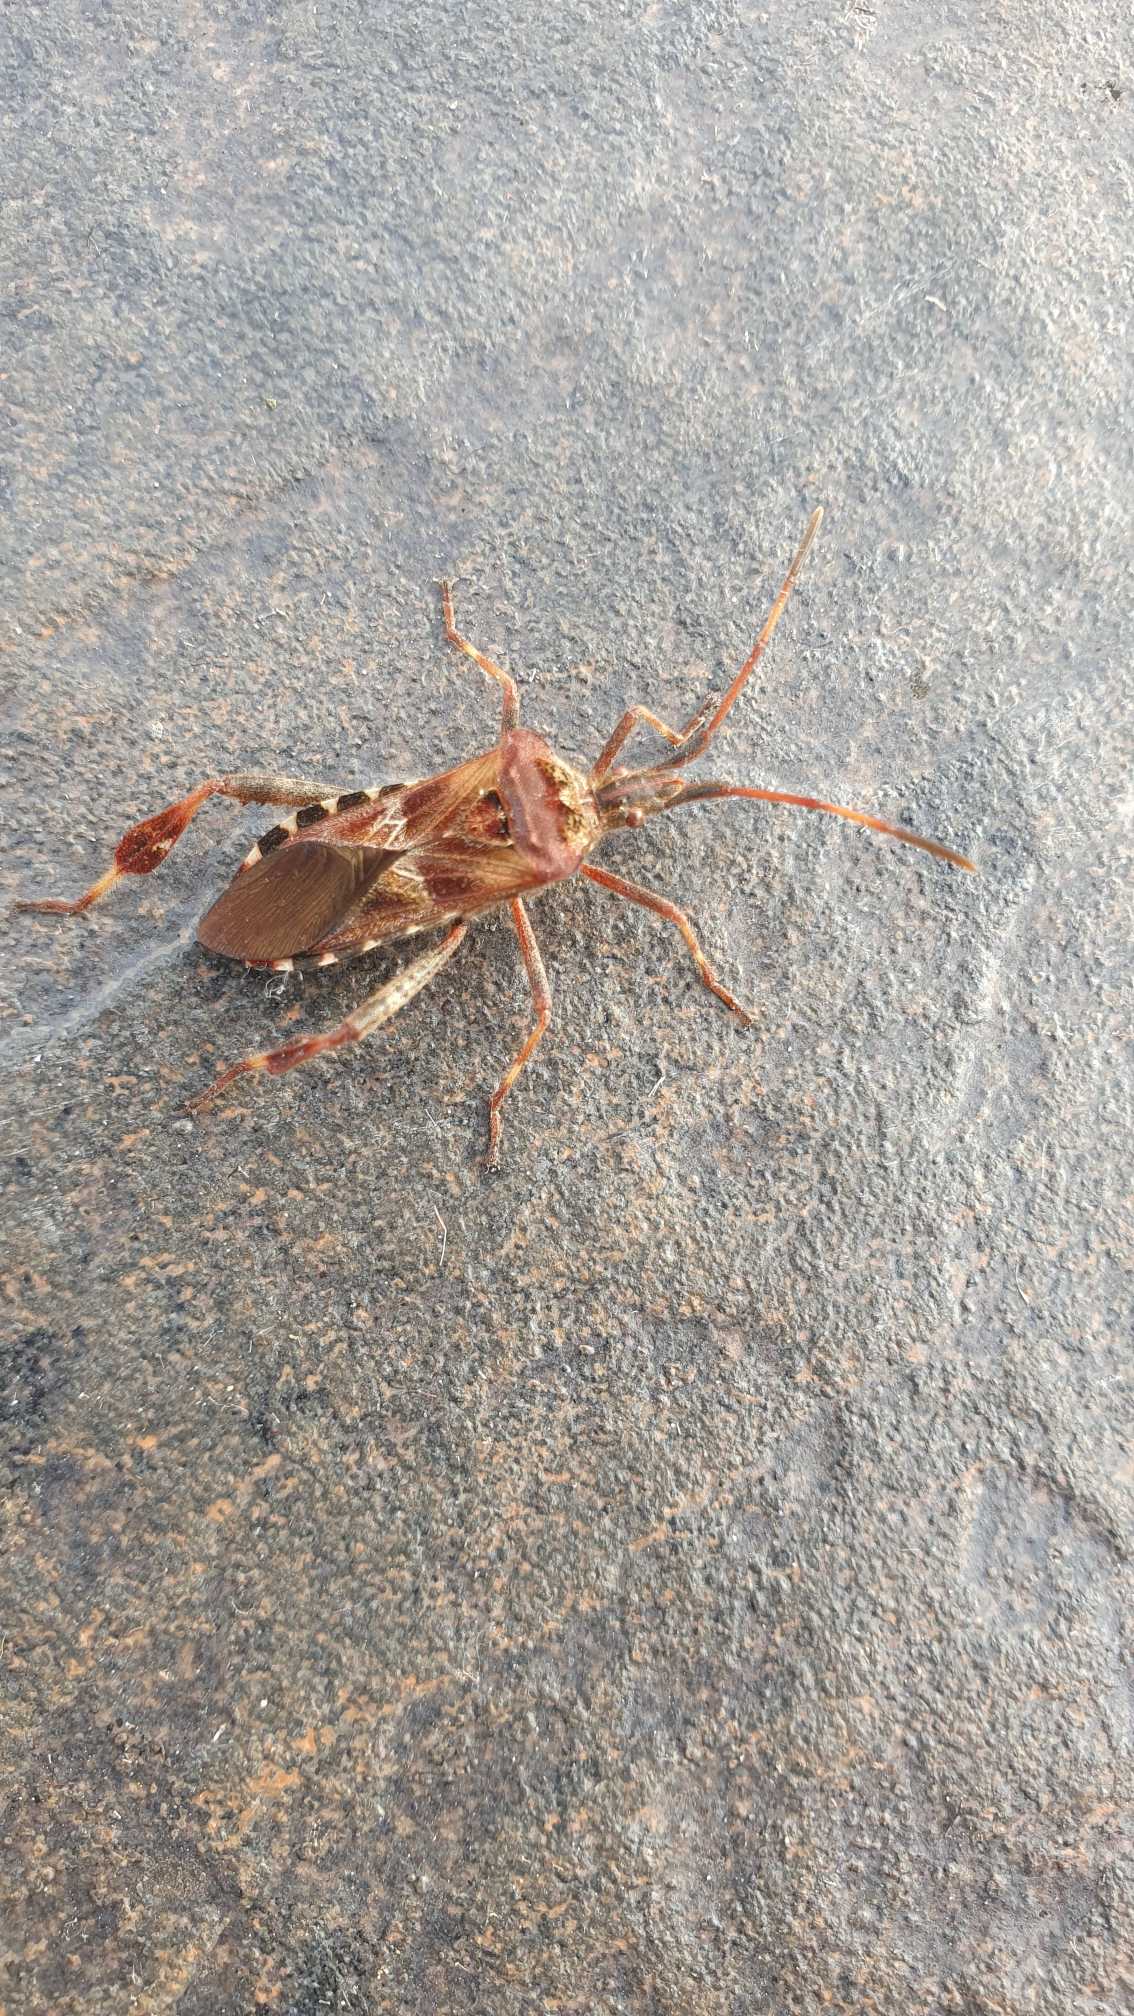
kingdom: Animalia
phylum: Arthropoda
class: Insecta
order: Hemiptera
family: Coreidae
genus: Leptoglossus
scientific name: Leptoglossus occidentalis
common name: Amerikansk fyrretæge
